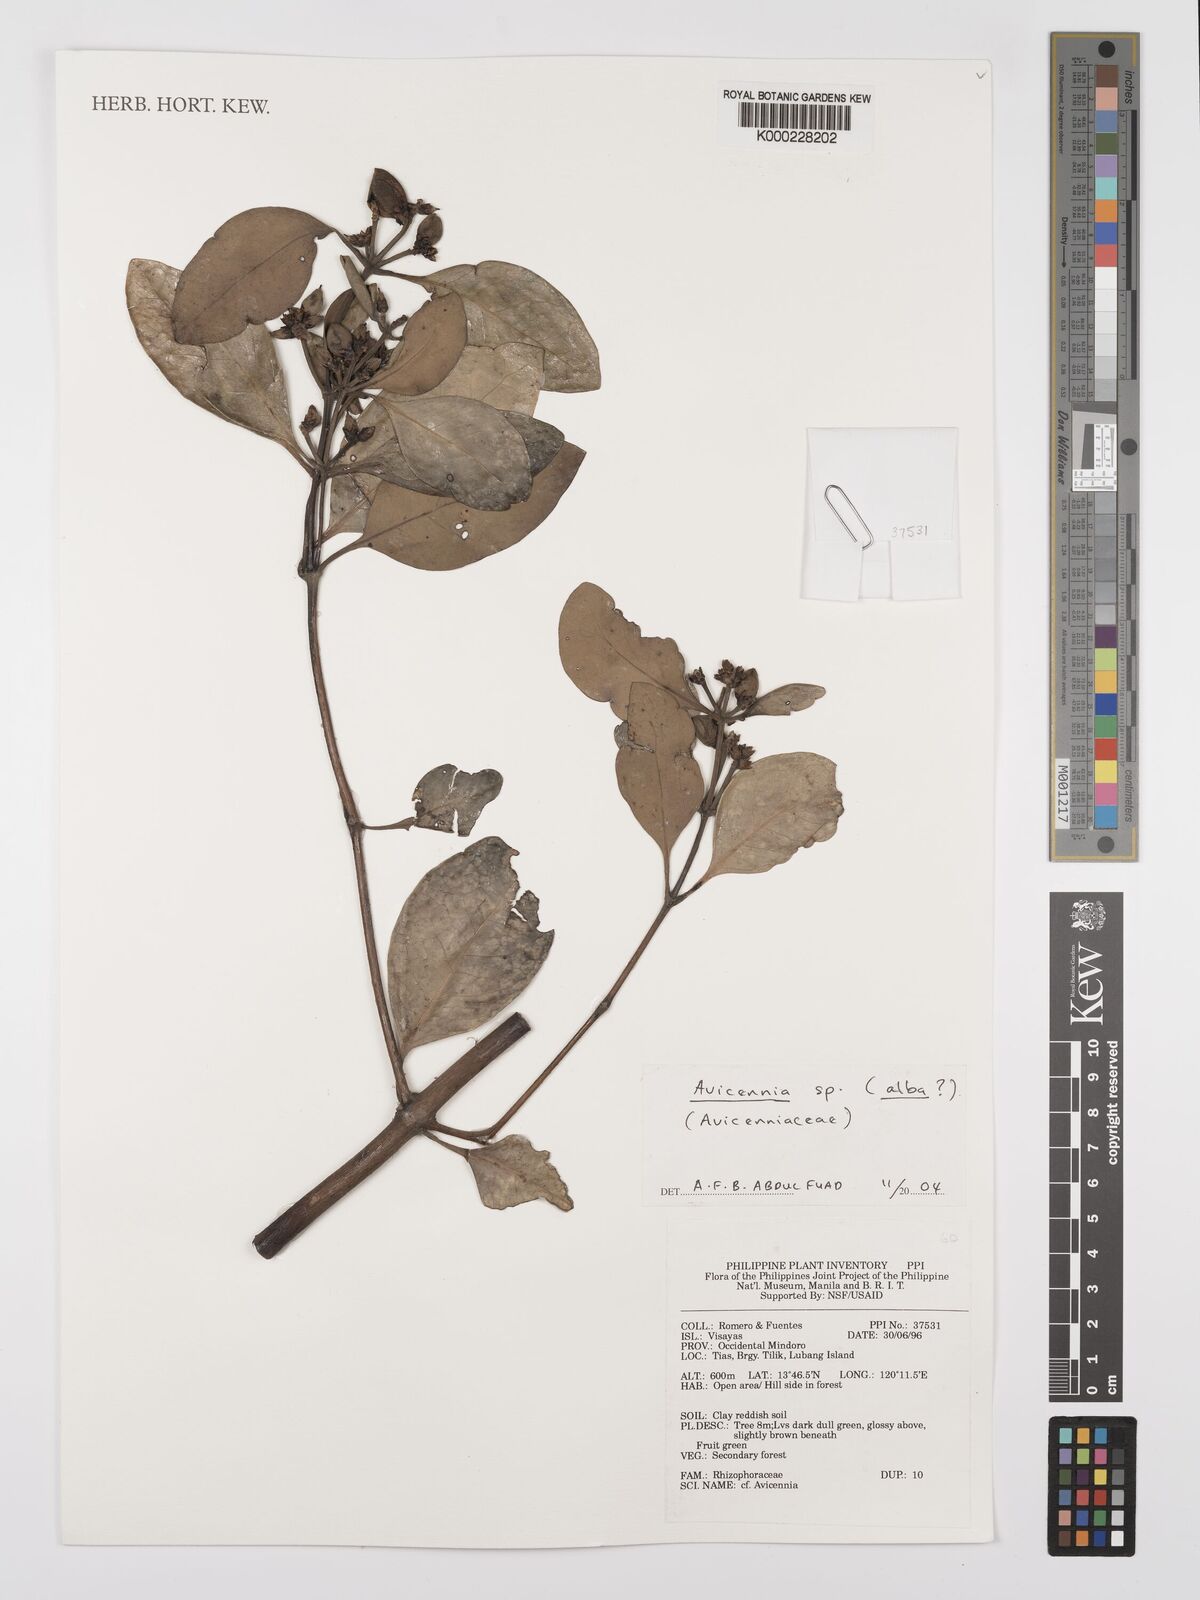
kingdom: Plantae
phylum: Tracheophyta
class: Magnoliopsida
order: Lamiales
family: Acanthaceae
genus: Avicennia
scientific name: Avicennia alba
